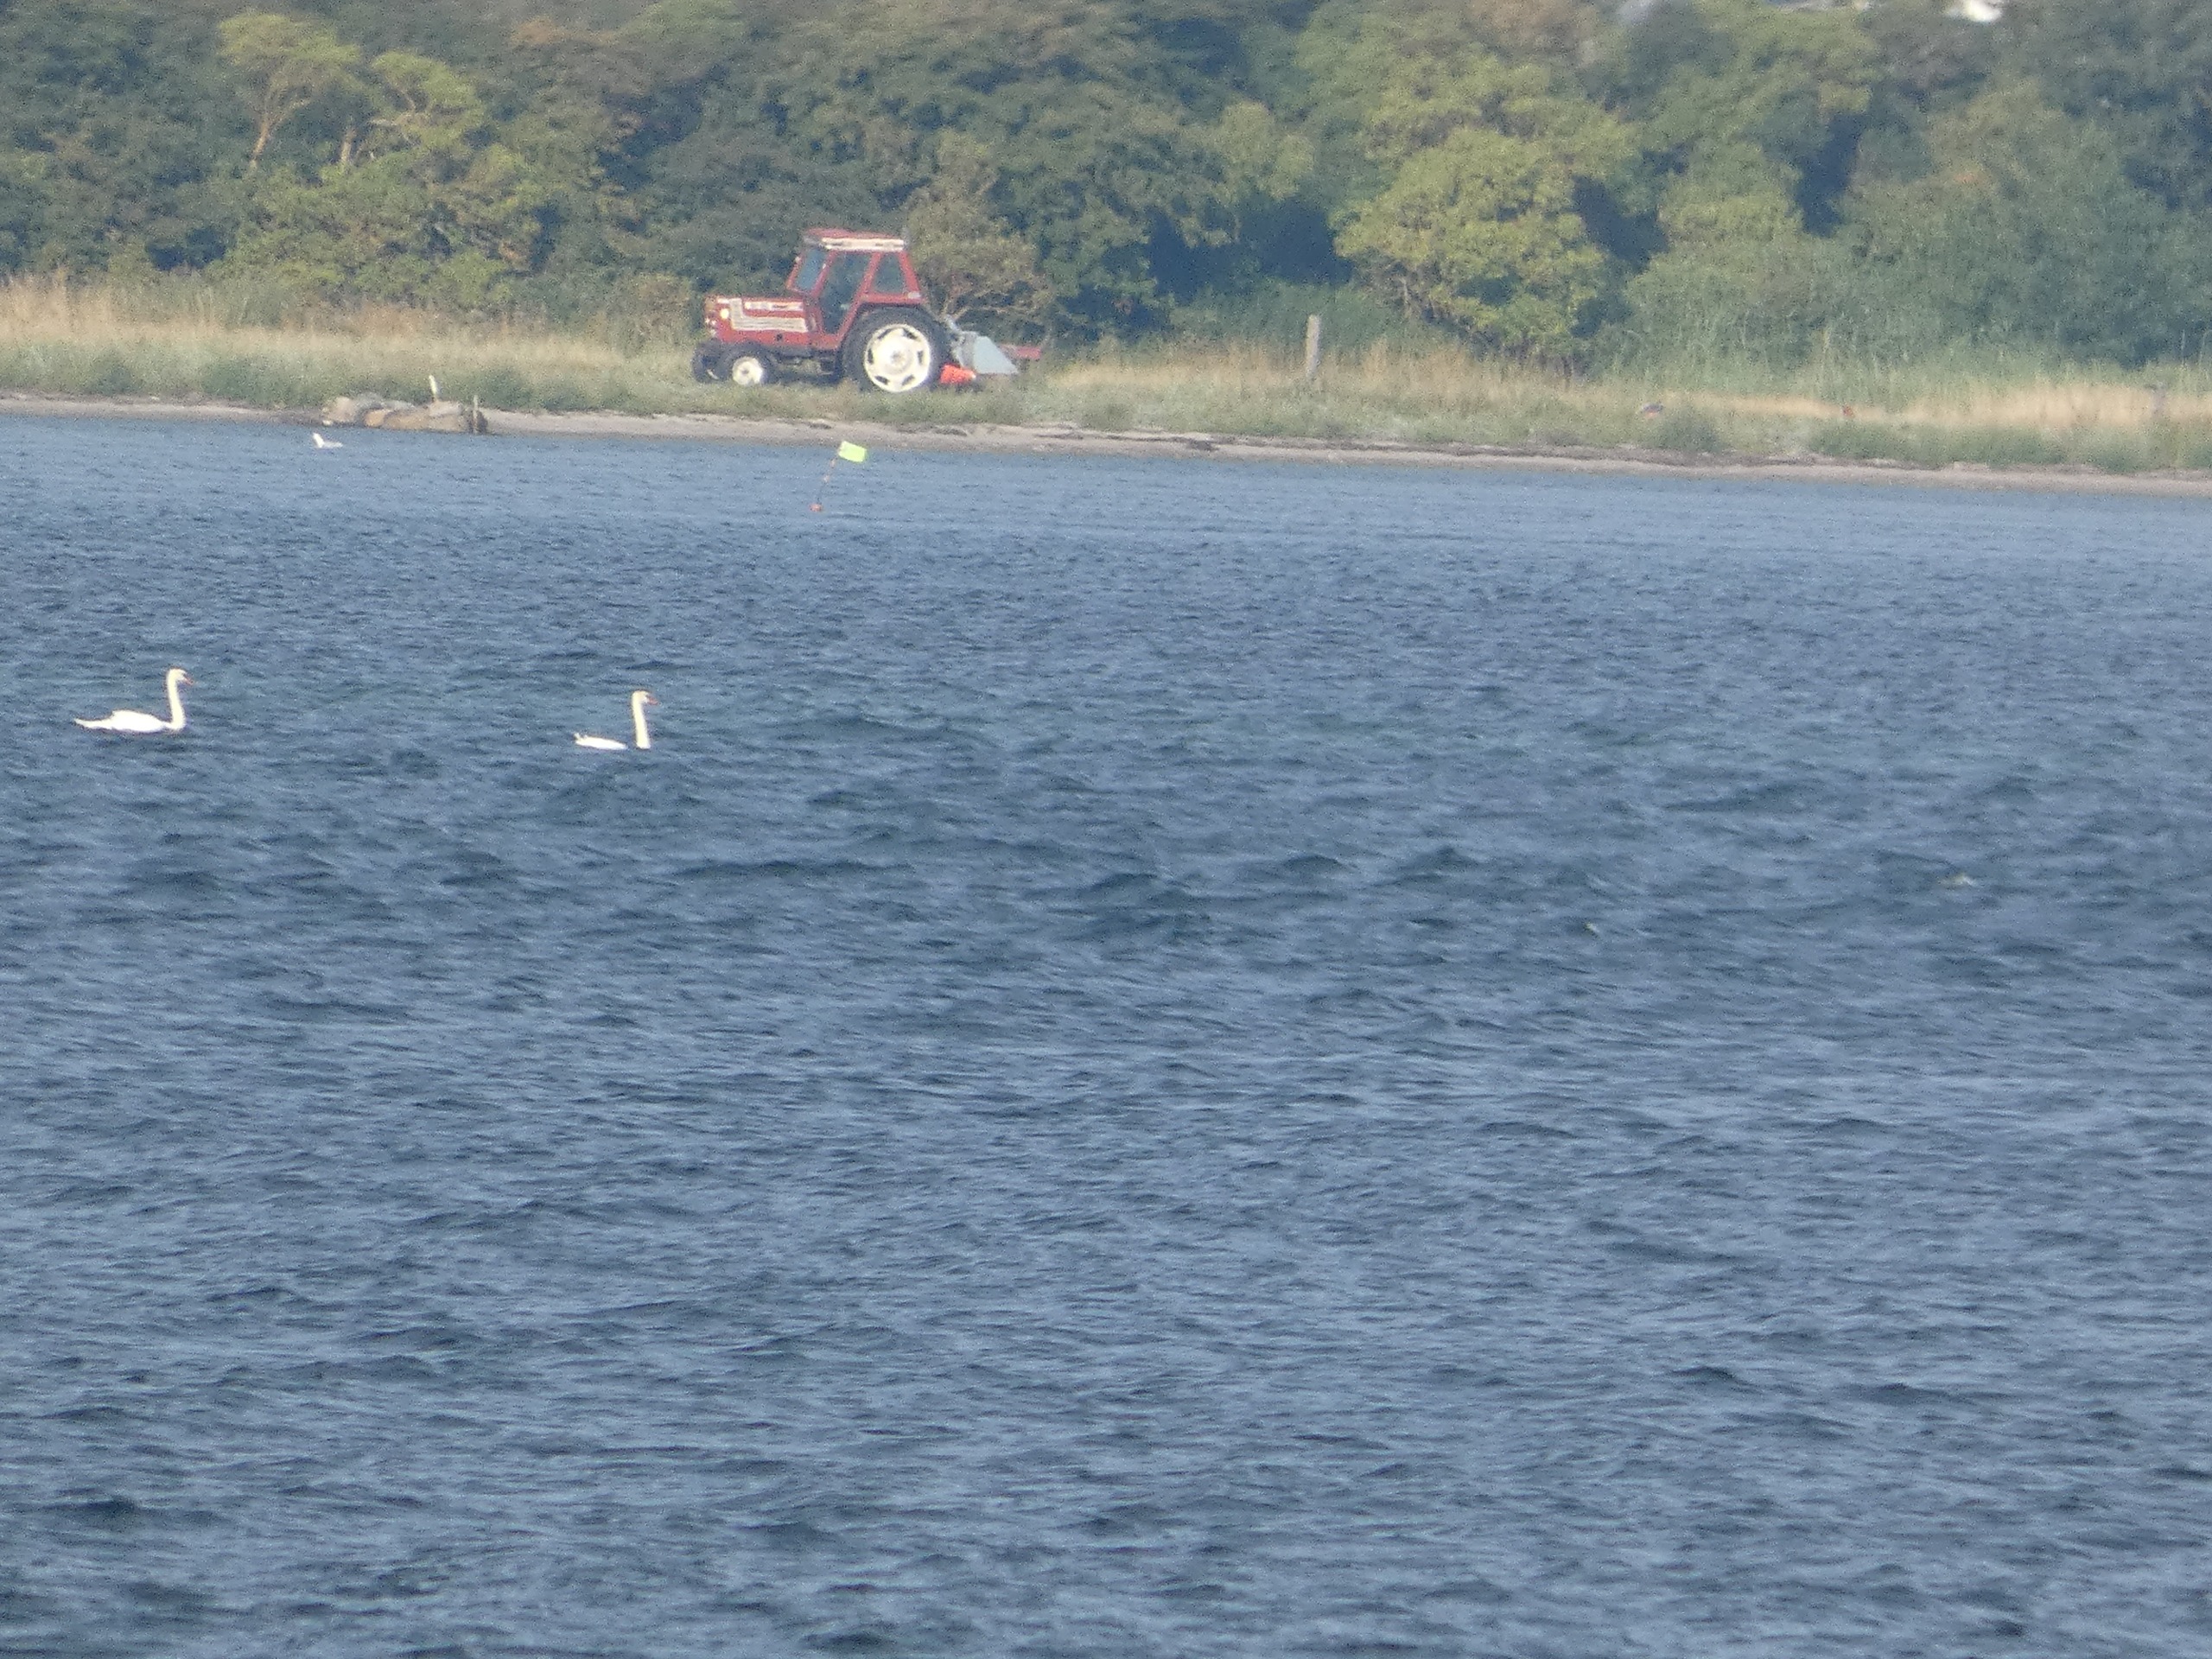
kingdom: Animalia
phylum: Chordata
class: Aves
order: Anseriformes
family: Anatidae
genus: Cygnus
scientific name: Cygnus olor
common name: Knopsvane
